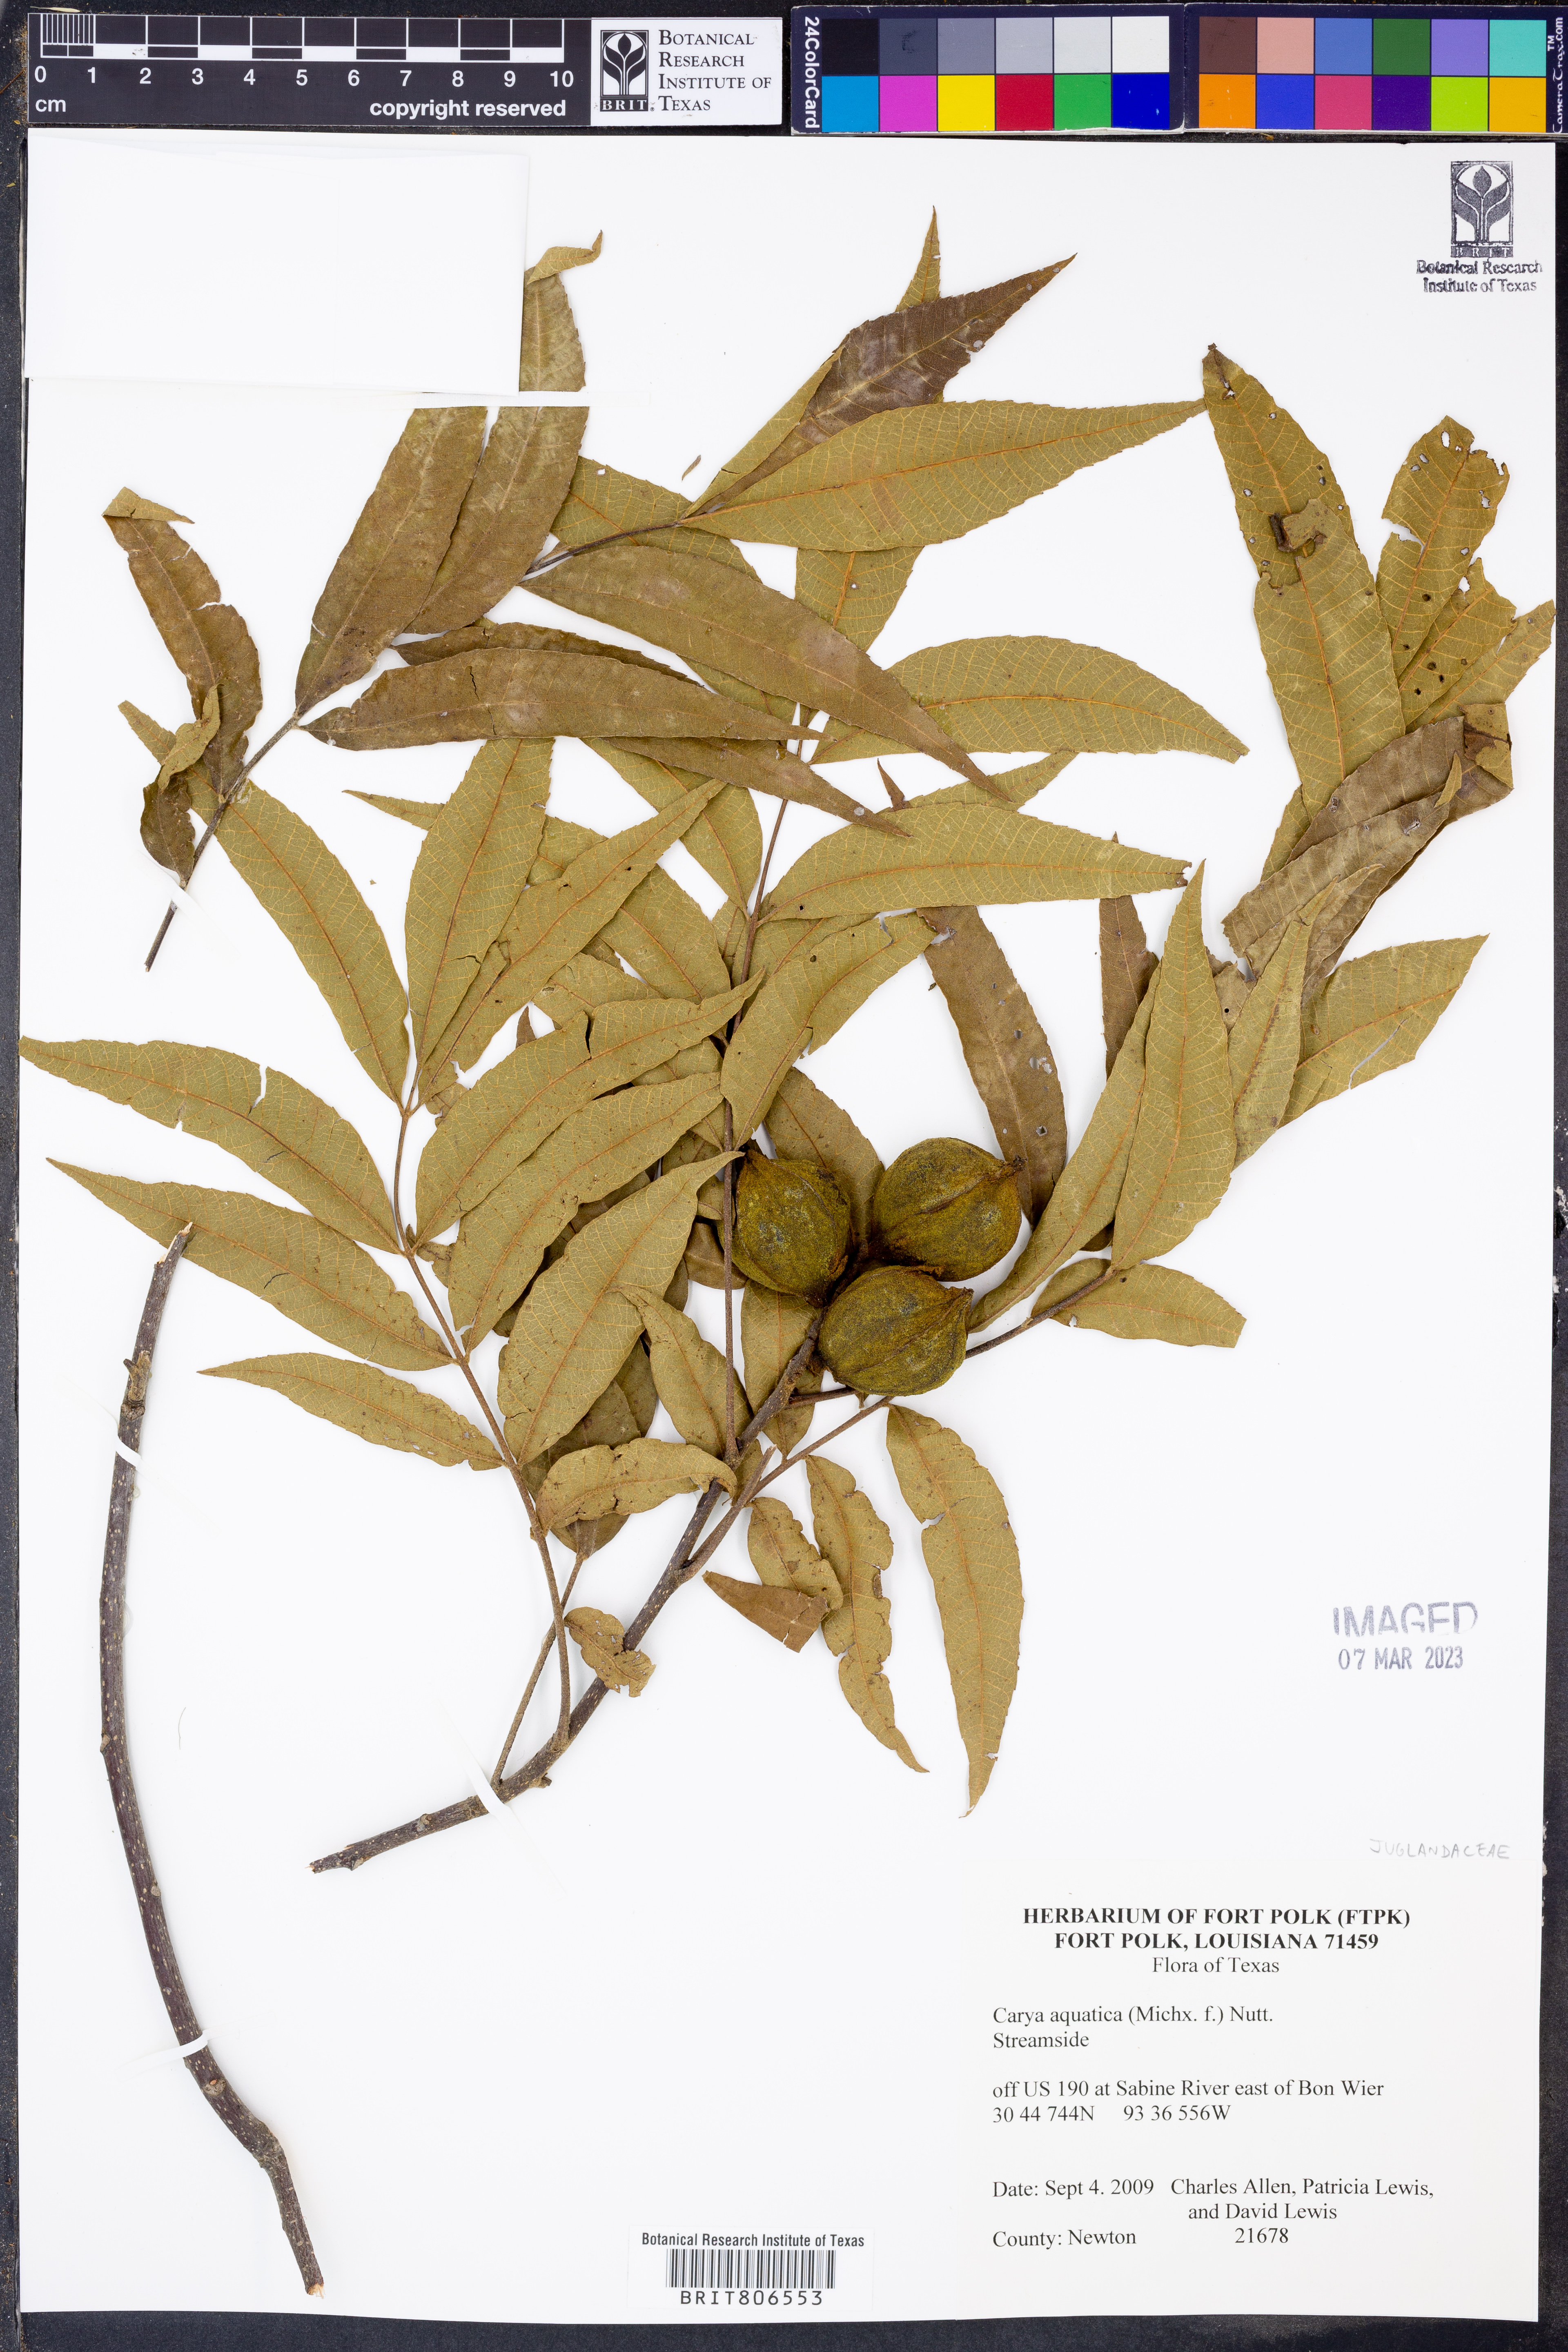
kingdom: Plantae
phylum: Tracheophyta
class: Magnoliopsida
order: Fagales
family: Juglandaceae
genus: Carya
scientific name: Carya aquatica
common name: Water hickory
